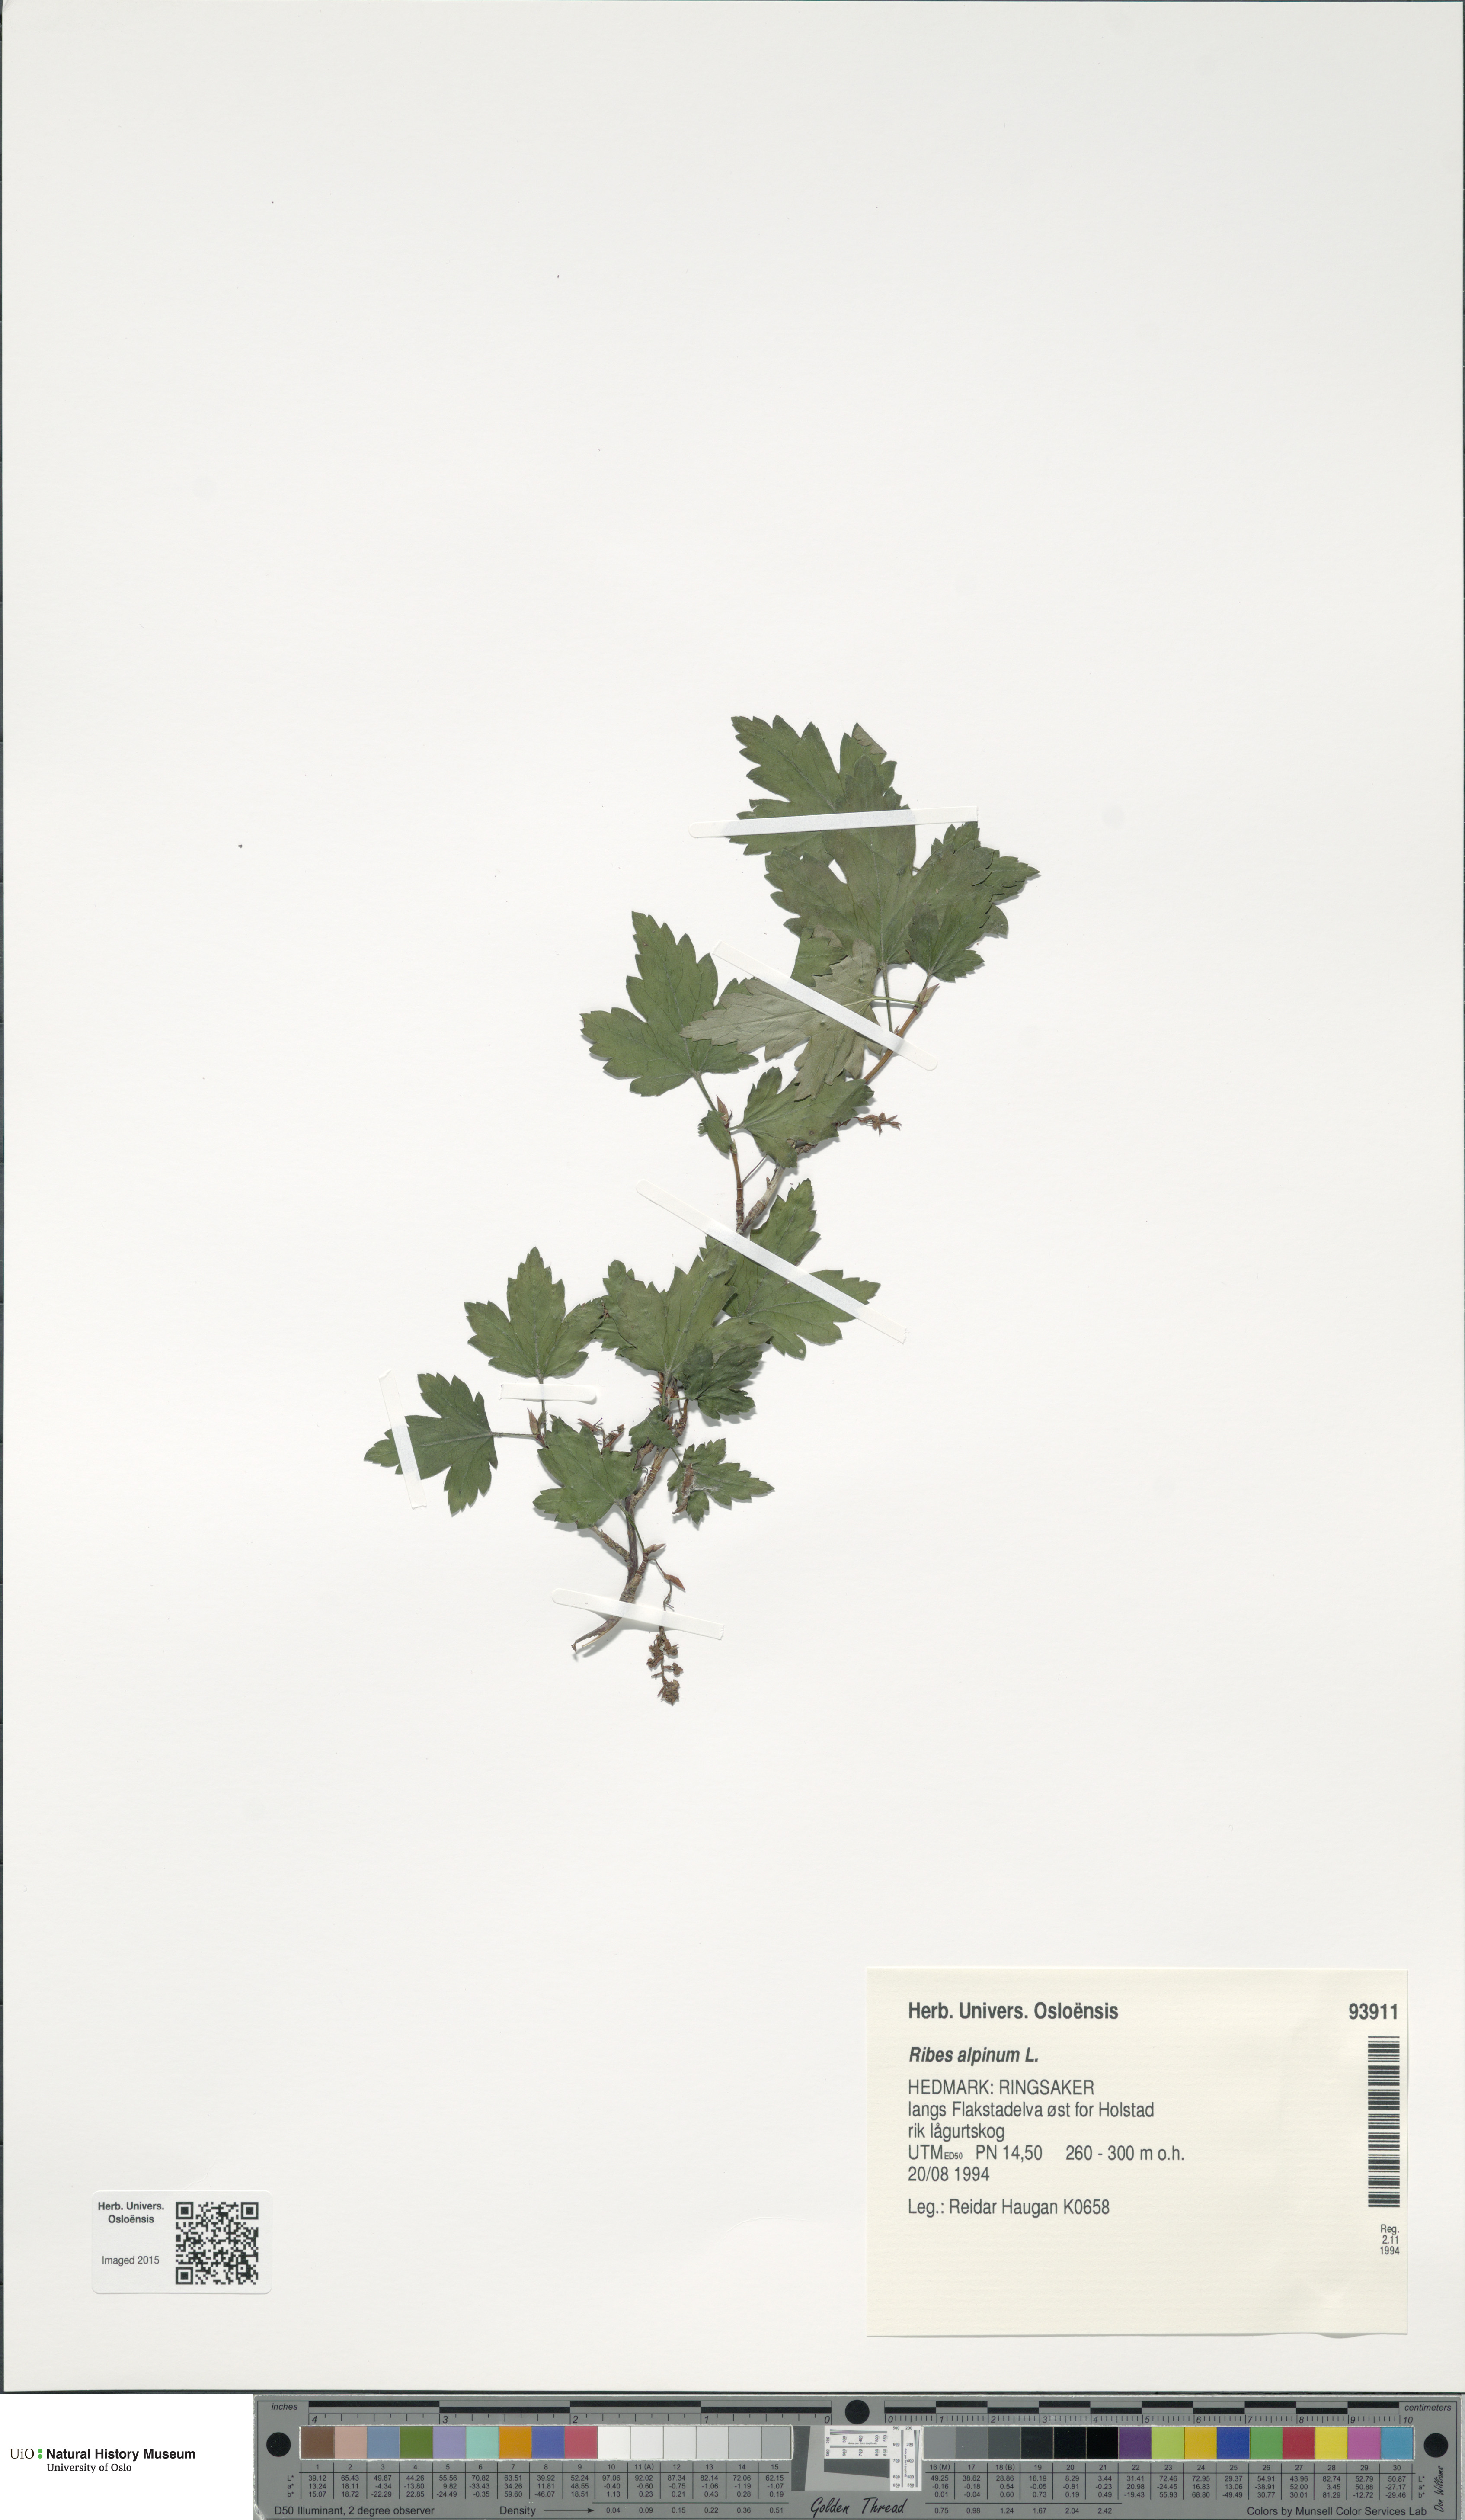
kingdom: Plantae
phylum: Tracheophyta
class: Magnoliopsida
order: Saxifragales
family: Grossulariaceae
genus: Ribes
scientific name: Ribes alpinum
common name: Alpine currant
